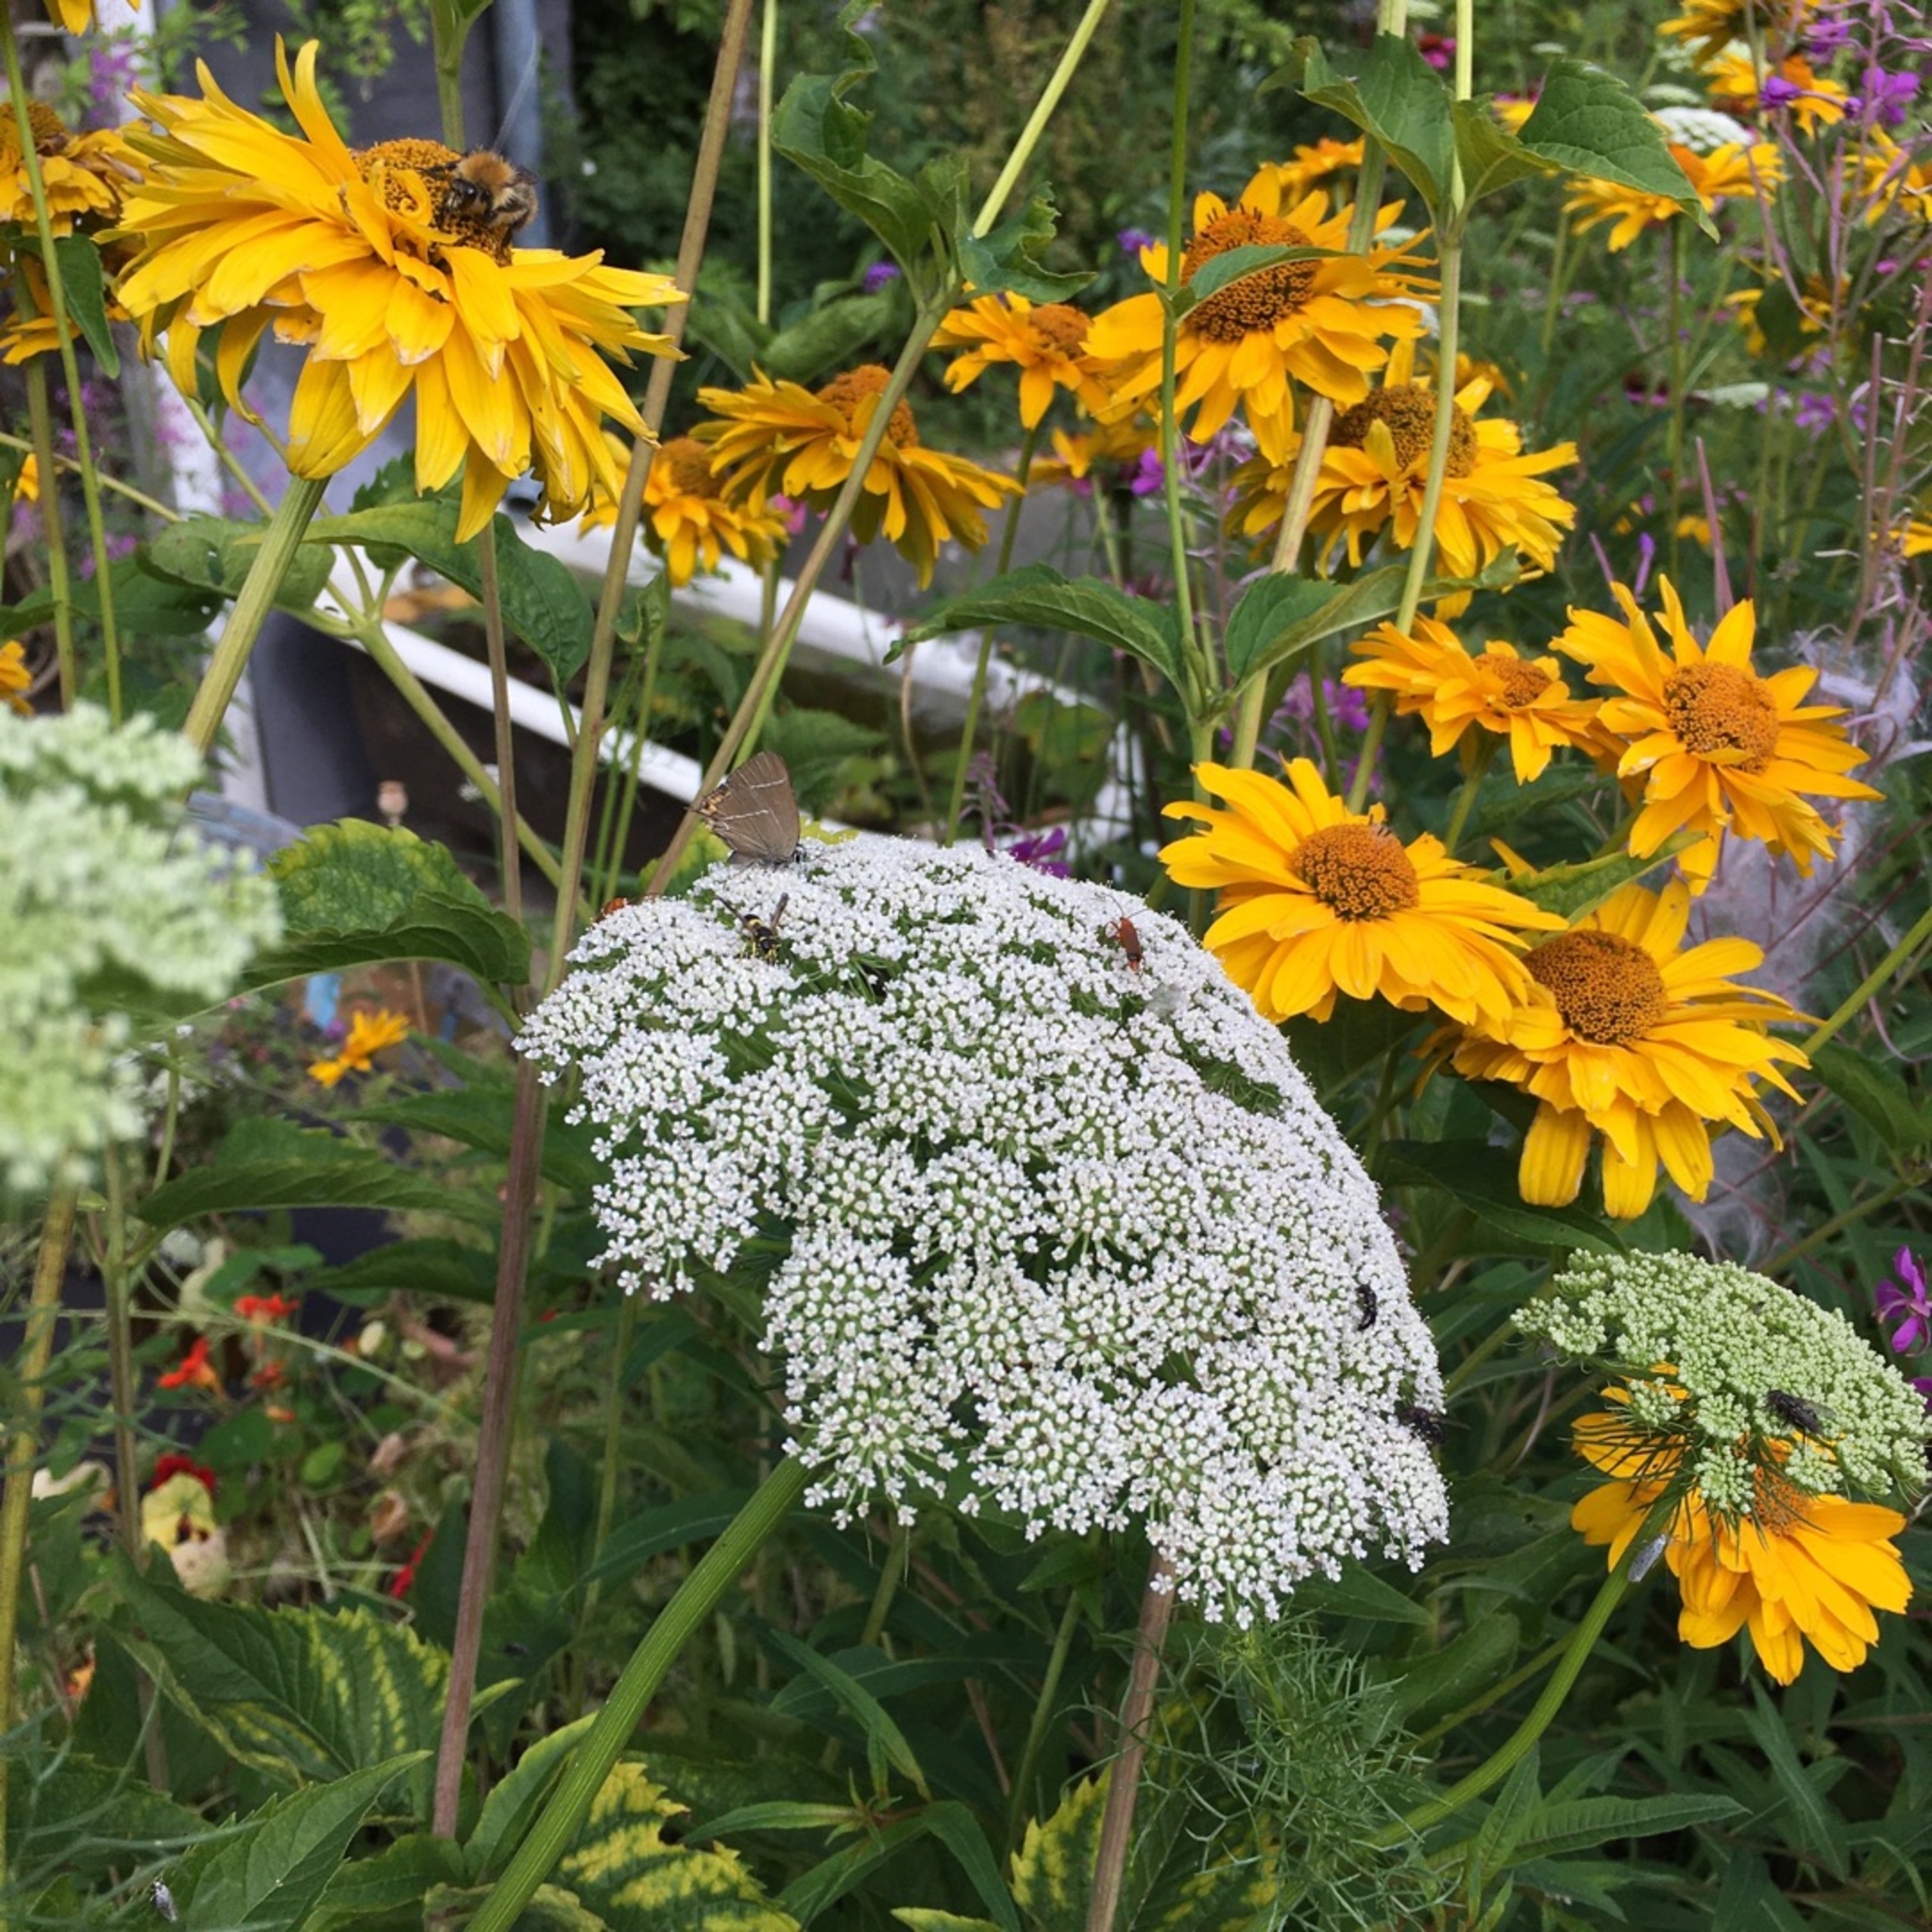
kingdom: Animalia
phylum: Arthropoda
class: Insecta
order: Lepidoptera
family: Lycaenidae
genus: Satyrium
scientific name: Satyrium w-album
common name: Det hvide W
